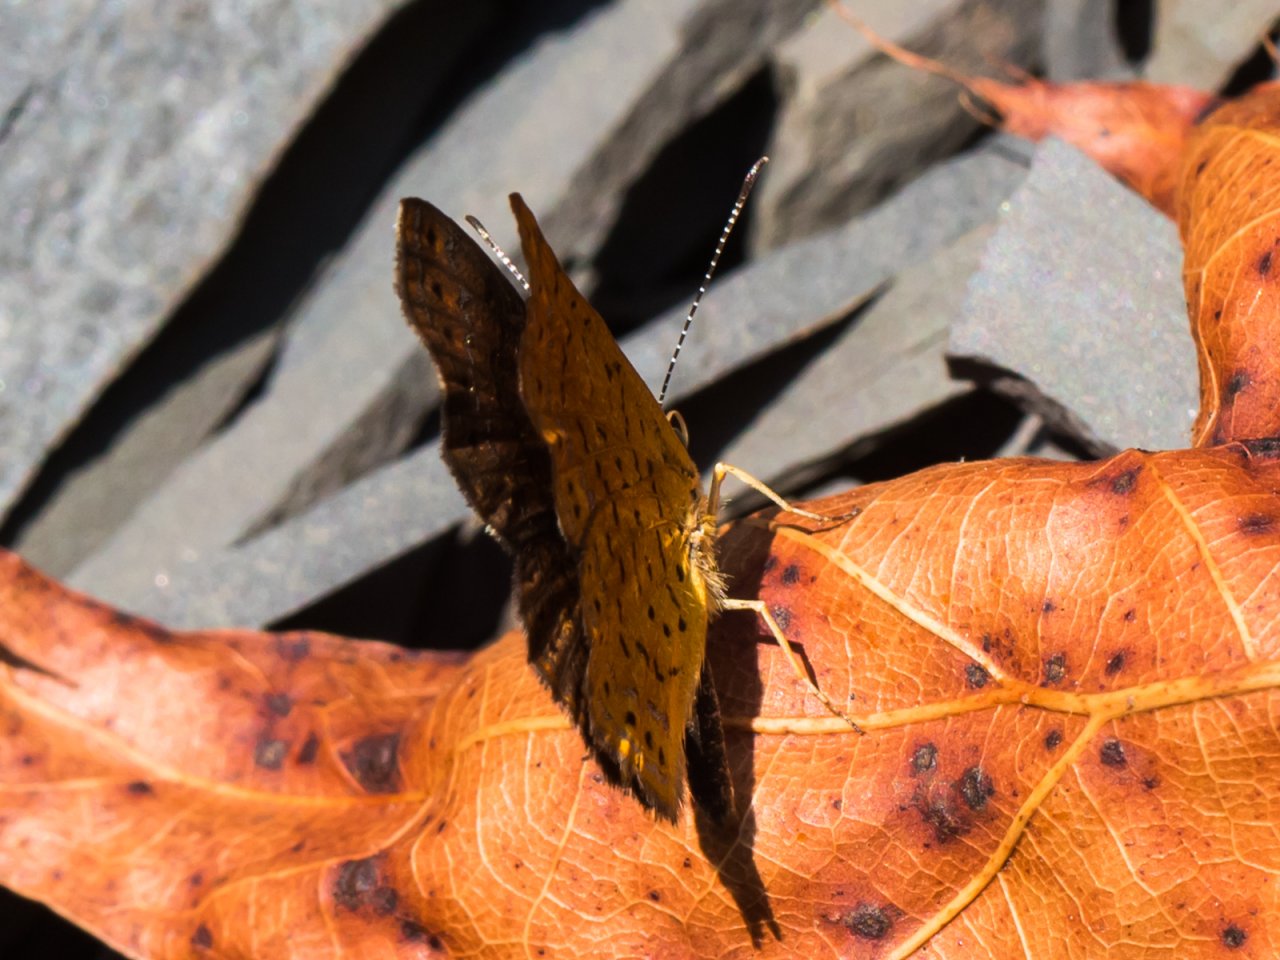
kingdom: Animalia
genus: Calephelis
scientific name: Calephelis borealis
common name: Northern Metalmark
